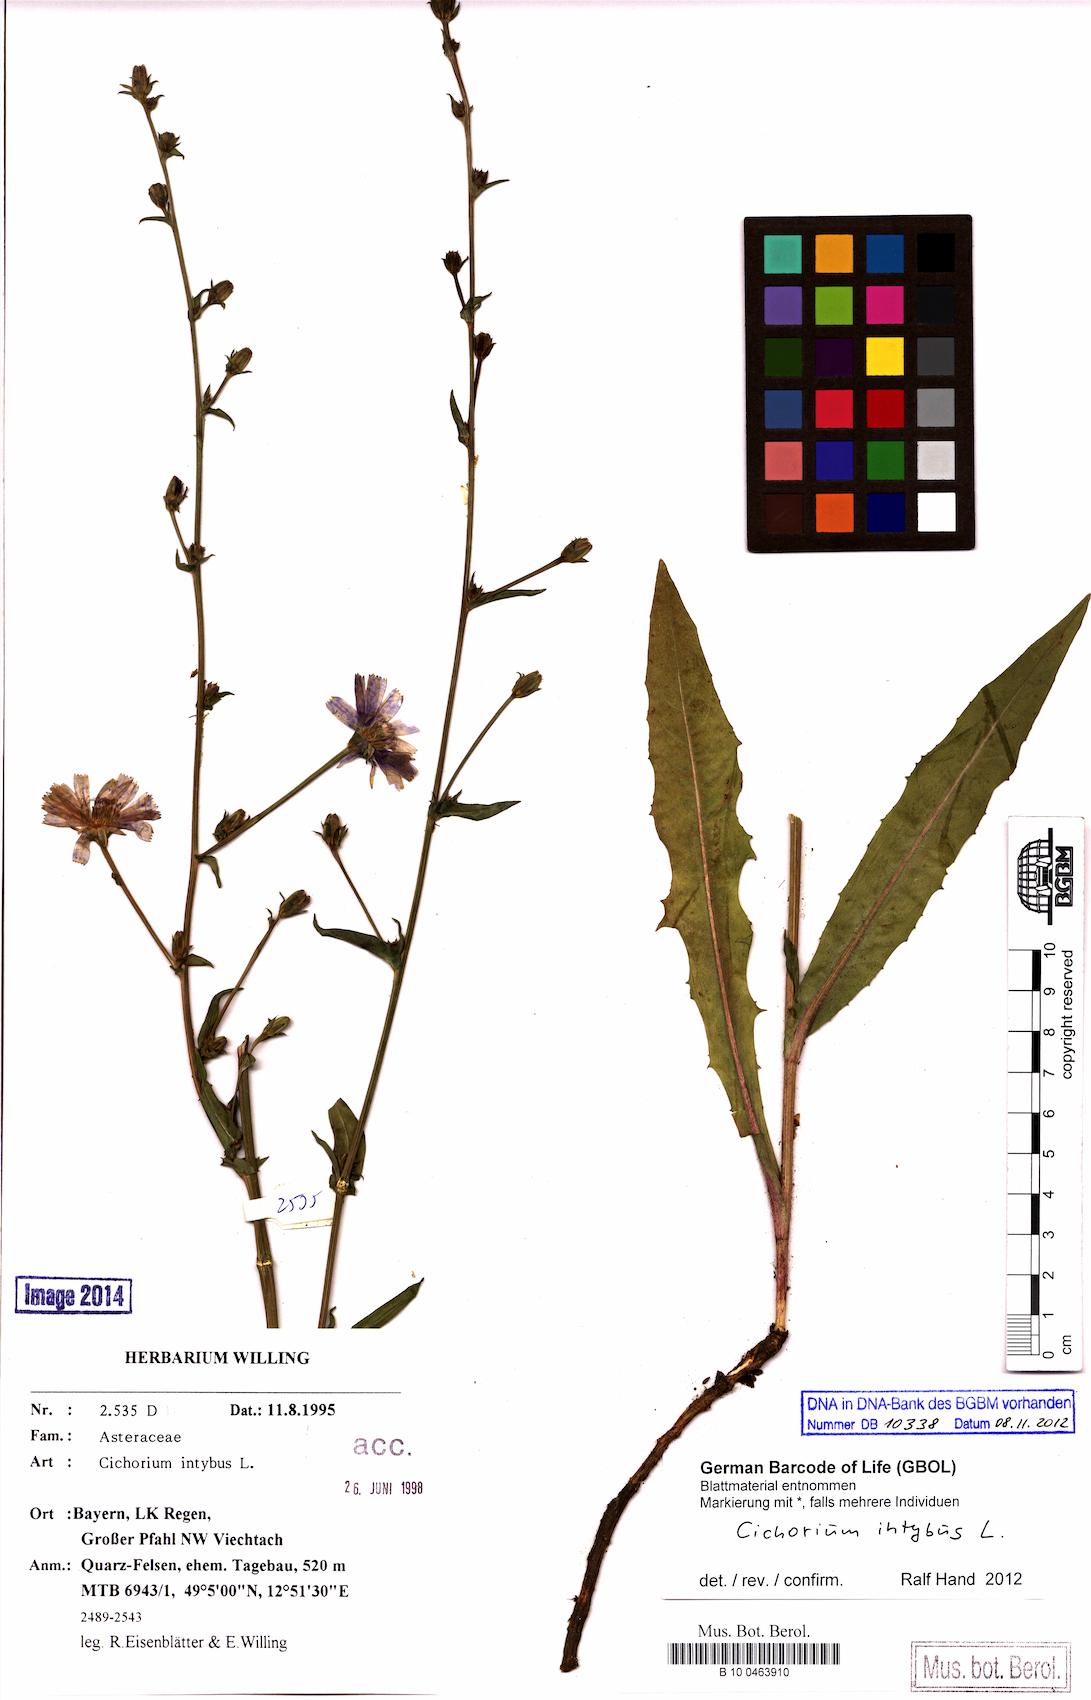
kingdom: Plantae
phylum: Tracheophyta
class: Magnoliopsida
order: Asterales
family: Asteraceae
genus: Cichorium
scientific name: Cichorium intybus
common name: Chicory
